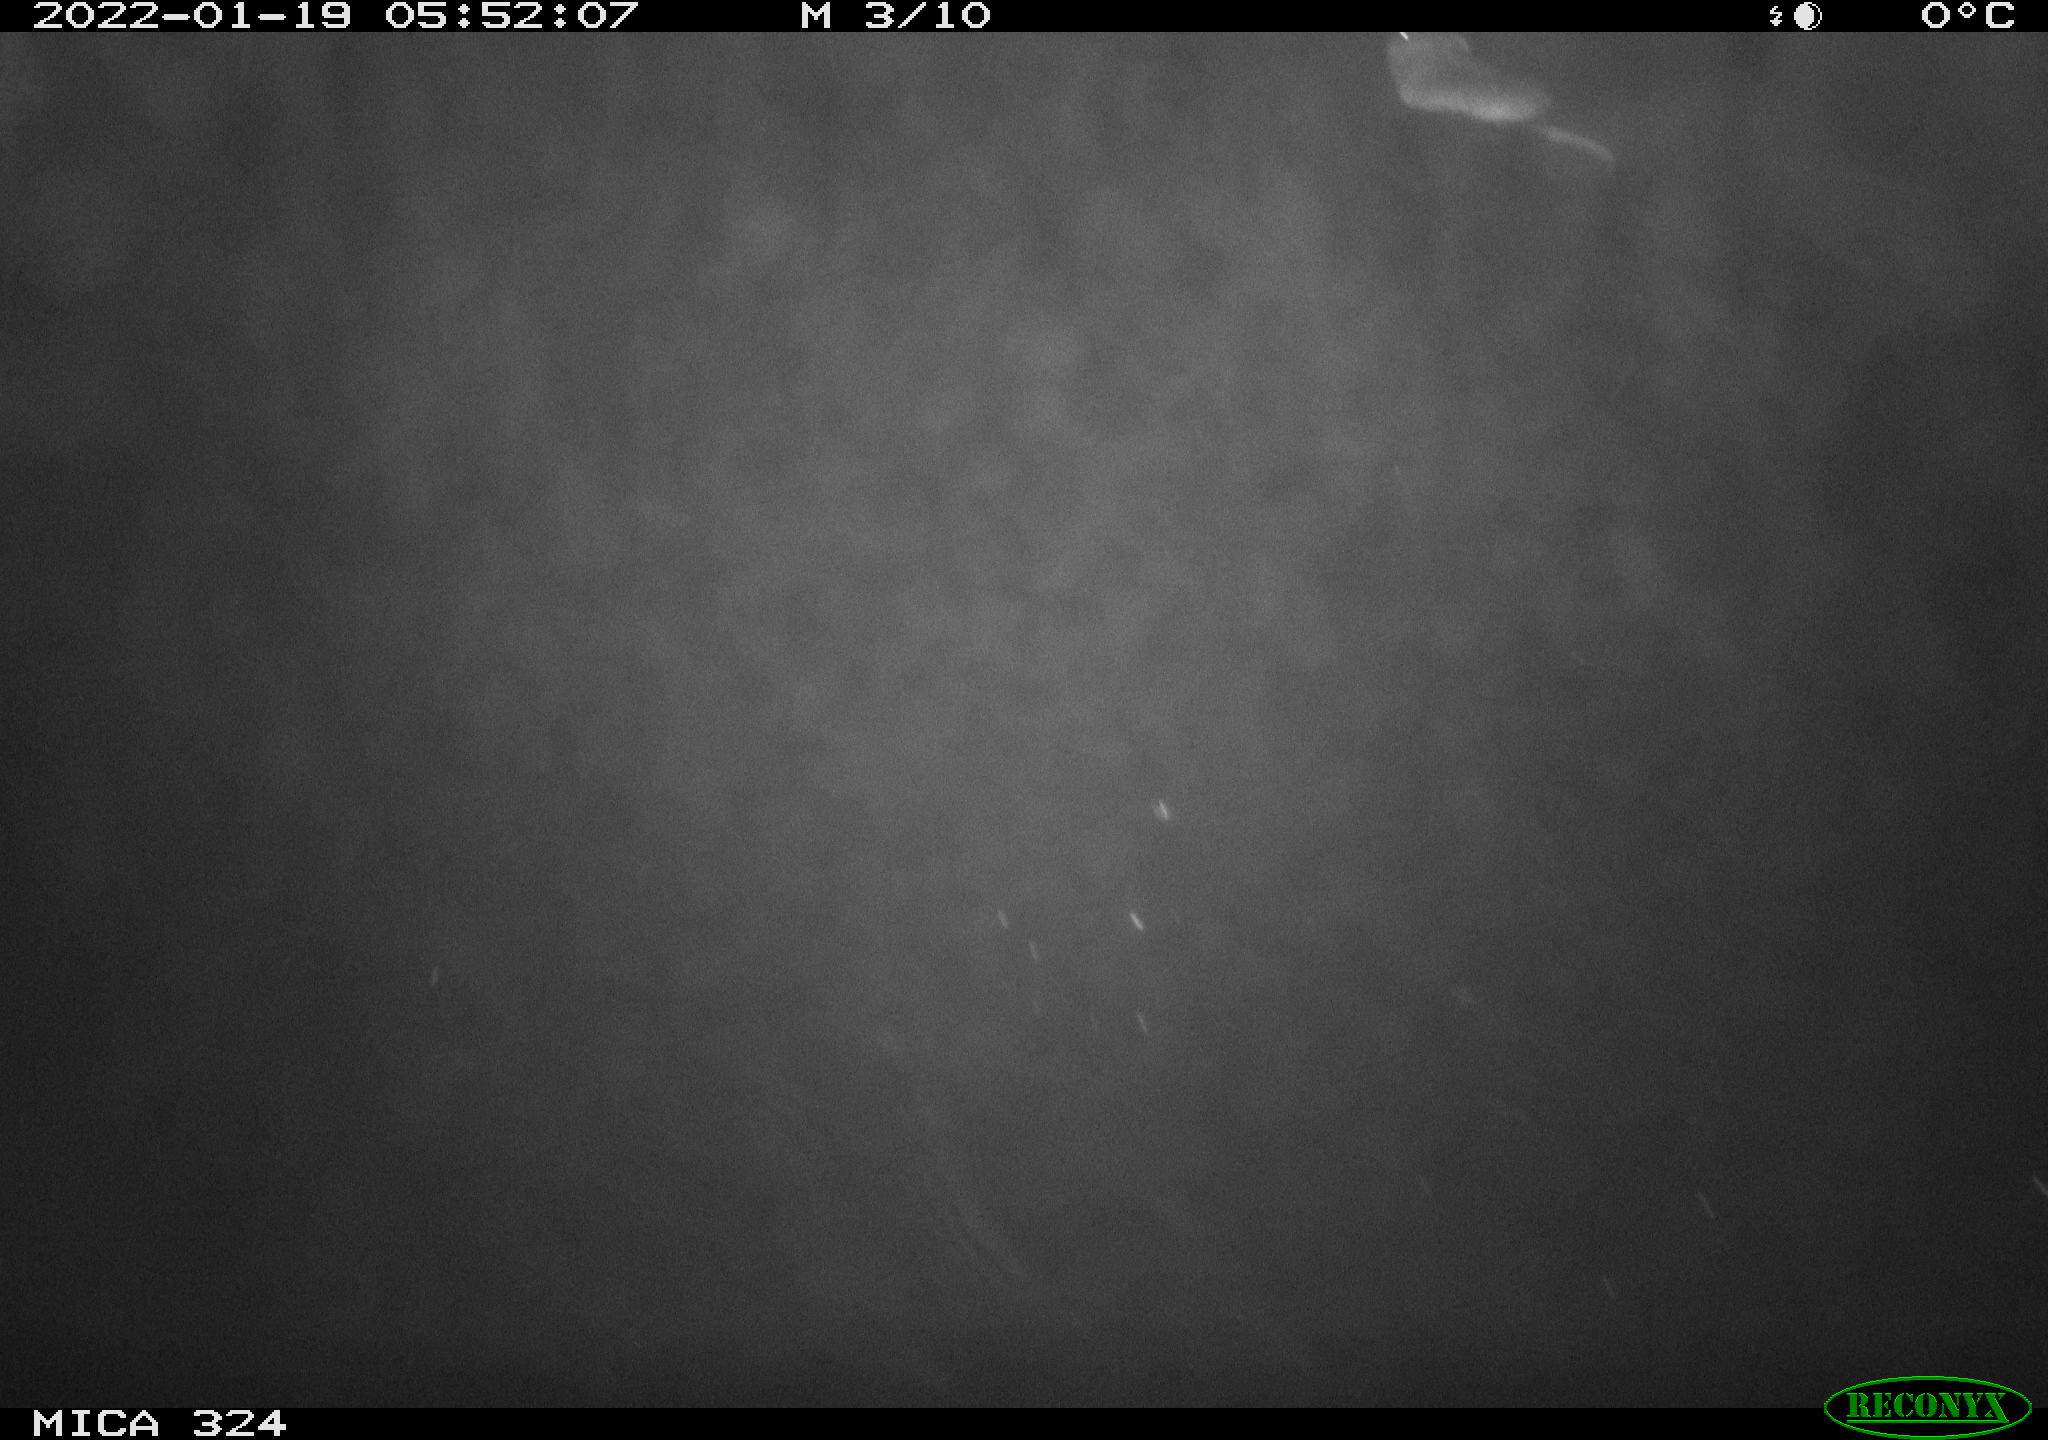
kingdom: Animalia
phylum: Chordata
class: Mammalia
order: Rodentia
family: Cricetidae
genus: Ondatra
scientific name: Ondatra zibethicus
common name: Muskrat
